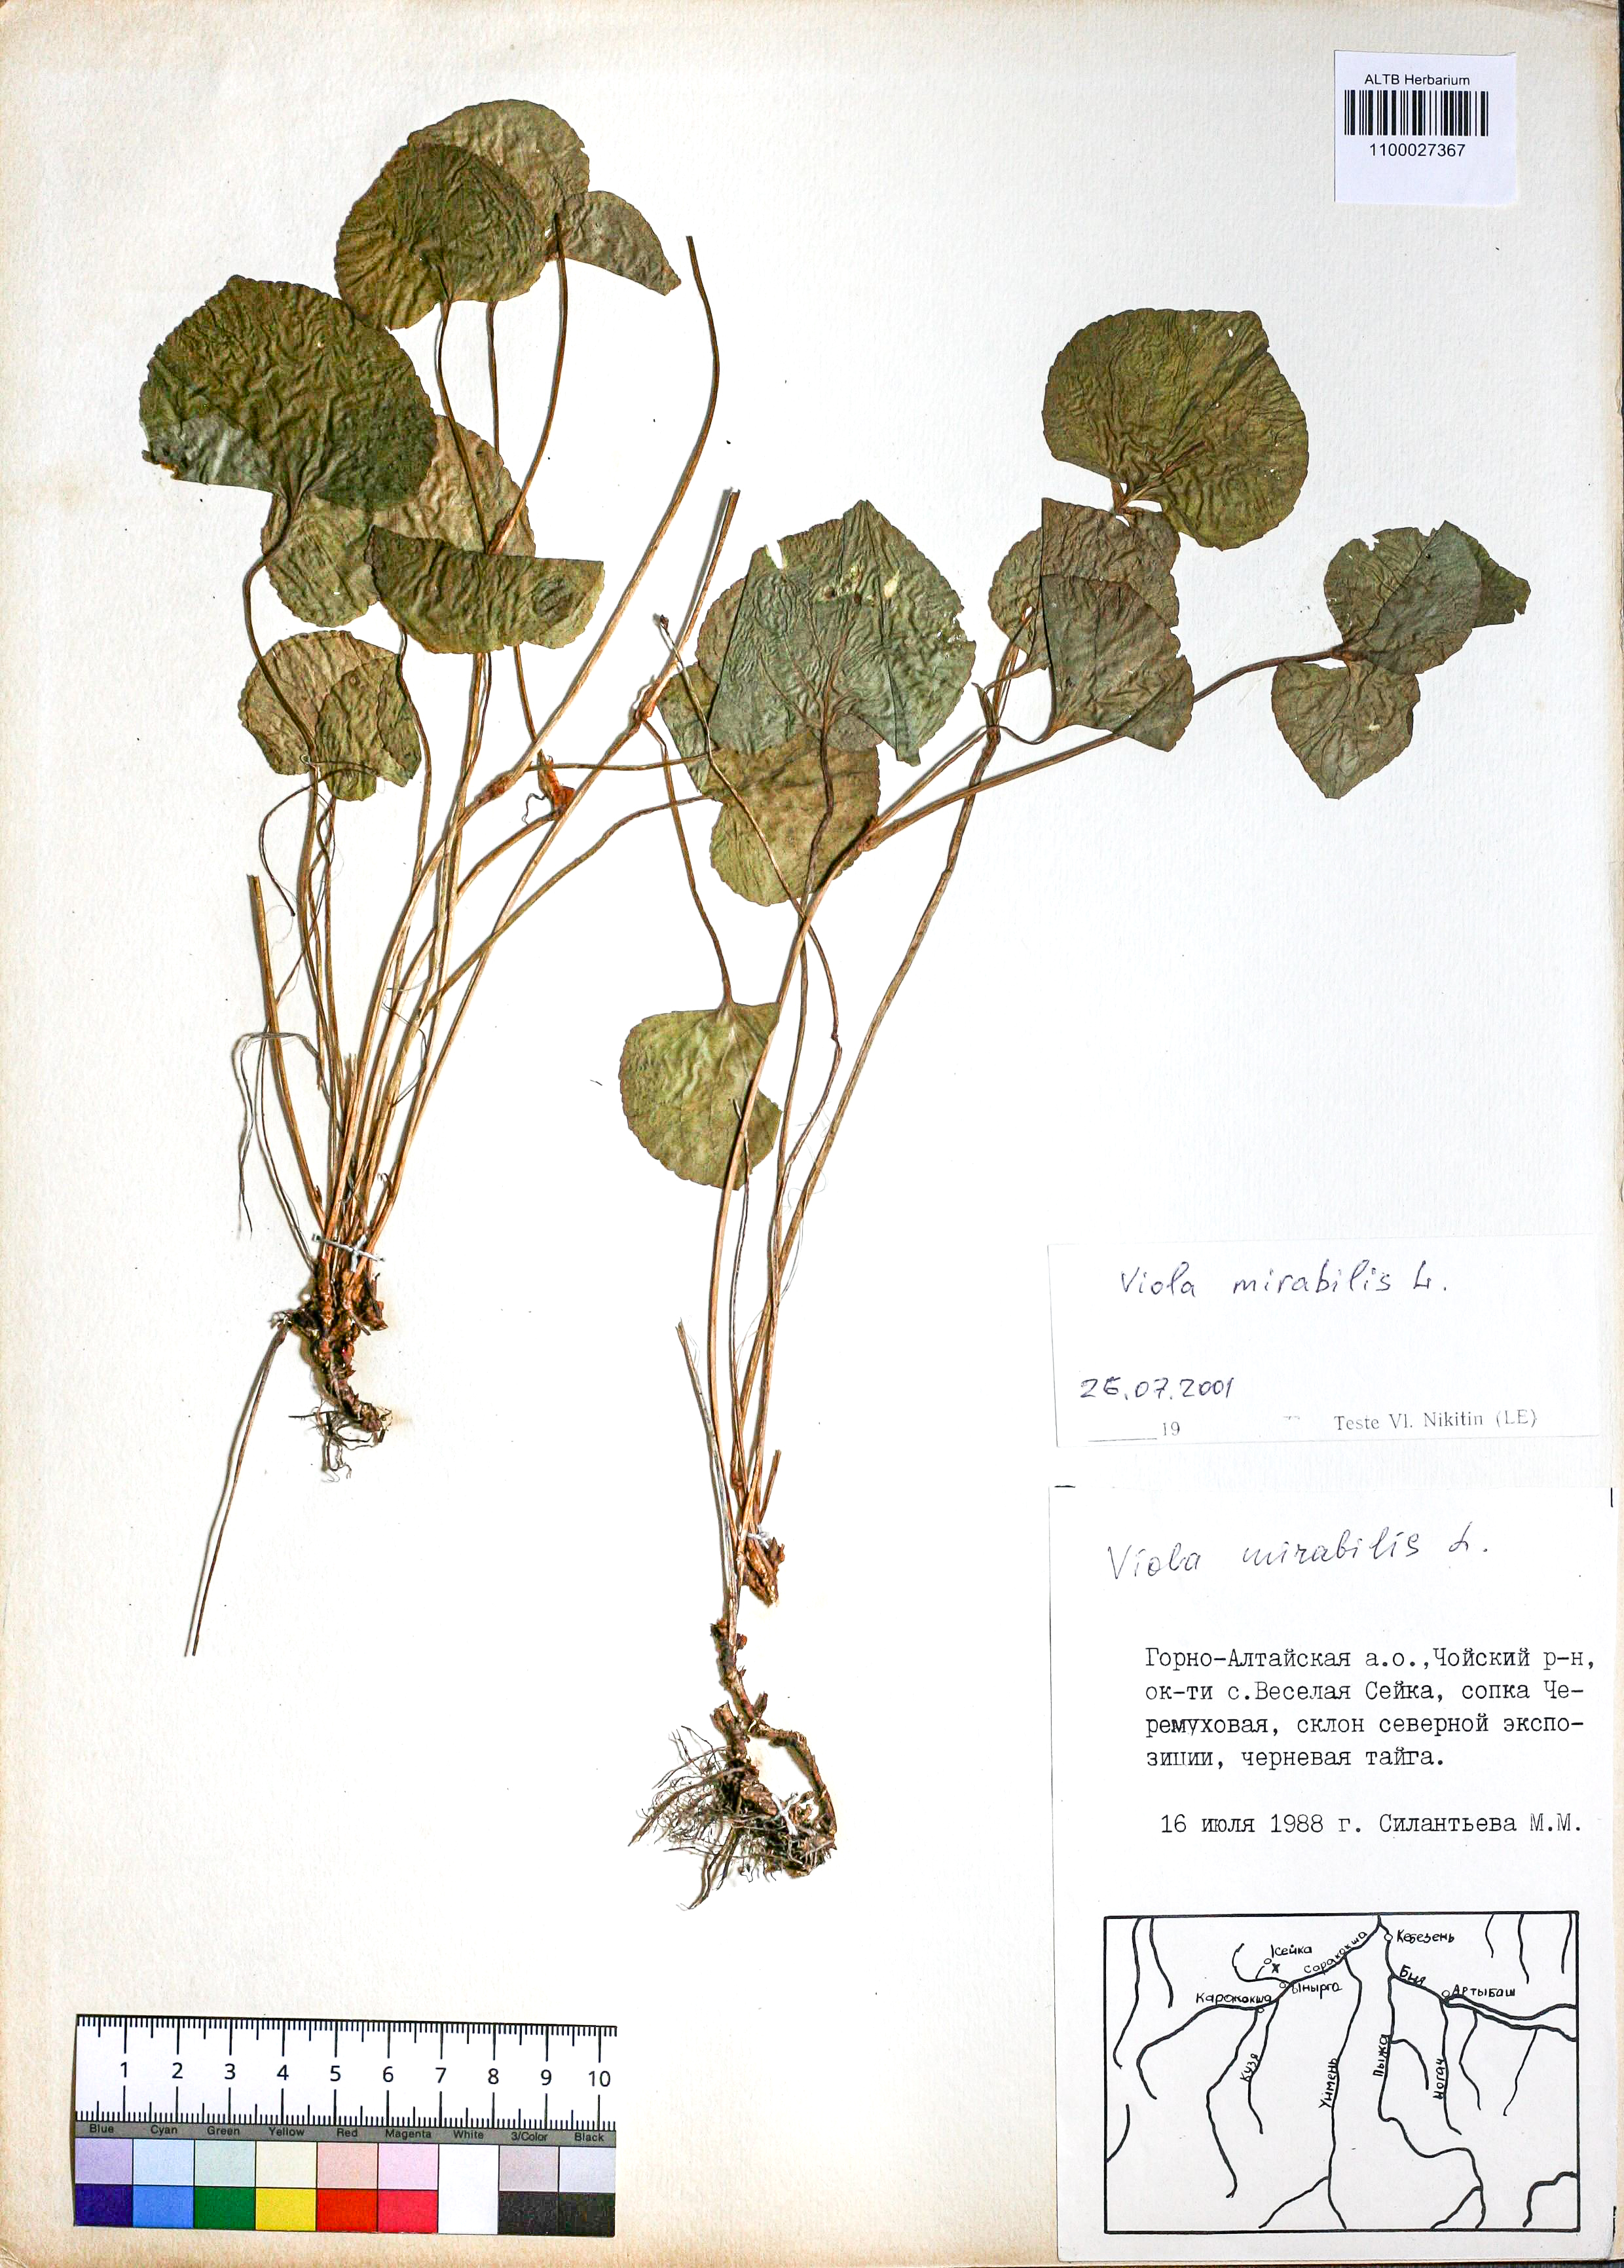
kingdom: Plantae
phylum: Tracheophyta
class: Magnoliopsida
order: Malpighiales
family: Violaceae
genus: Viola
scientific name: Viola mirabilis
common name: Wonder violet
